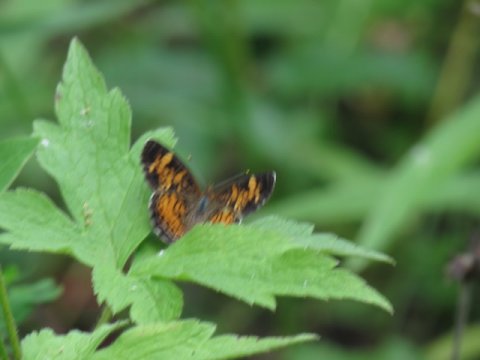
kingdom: Animalia
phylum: Arthropoda
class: Insecta
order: Lepidoptera
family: Nymphalidae
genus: Phyciodes
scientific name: Phyciodes tharos
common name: Pearl Crescent
